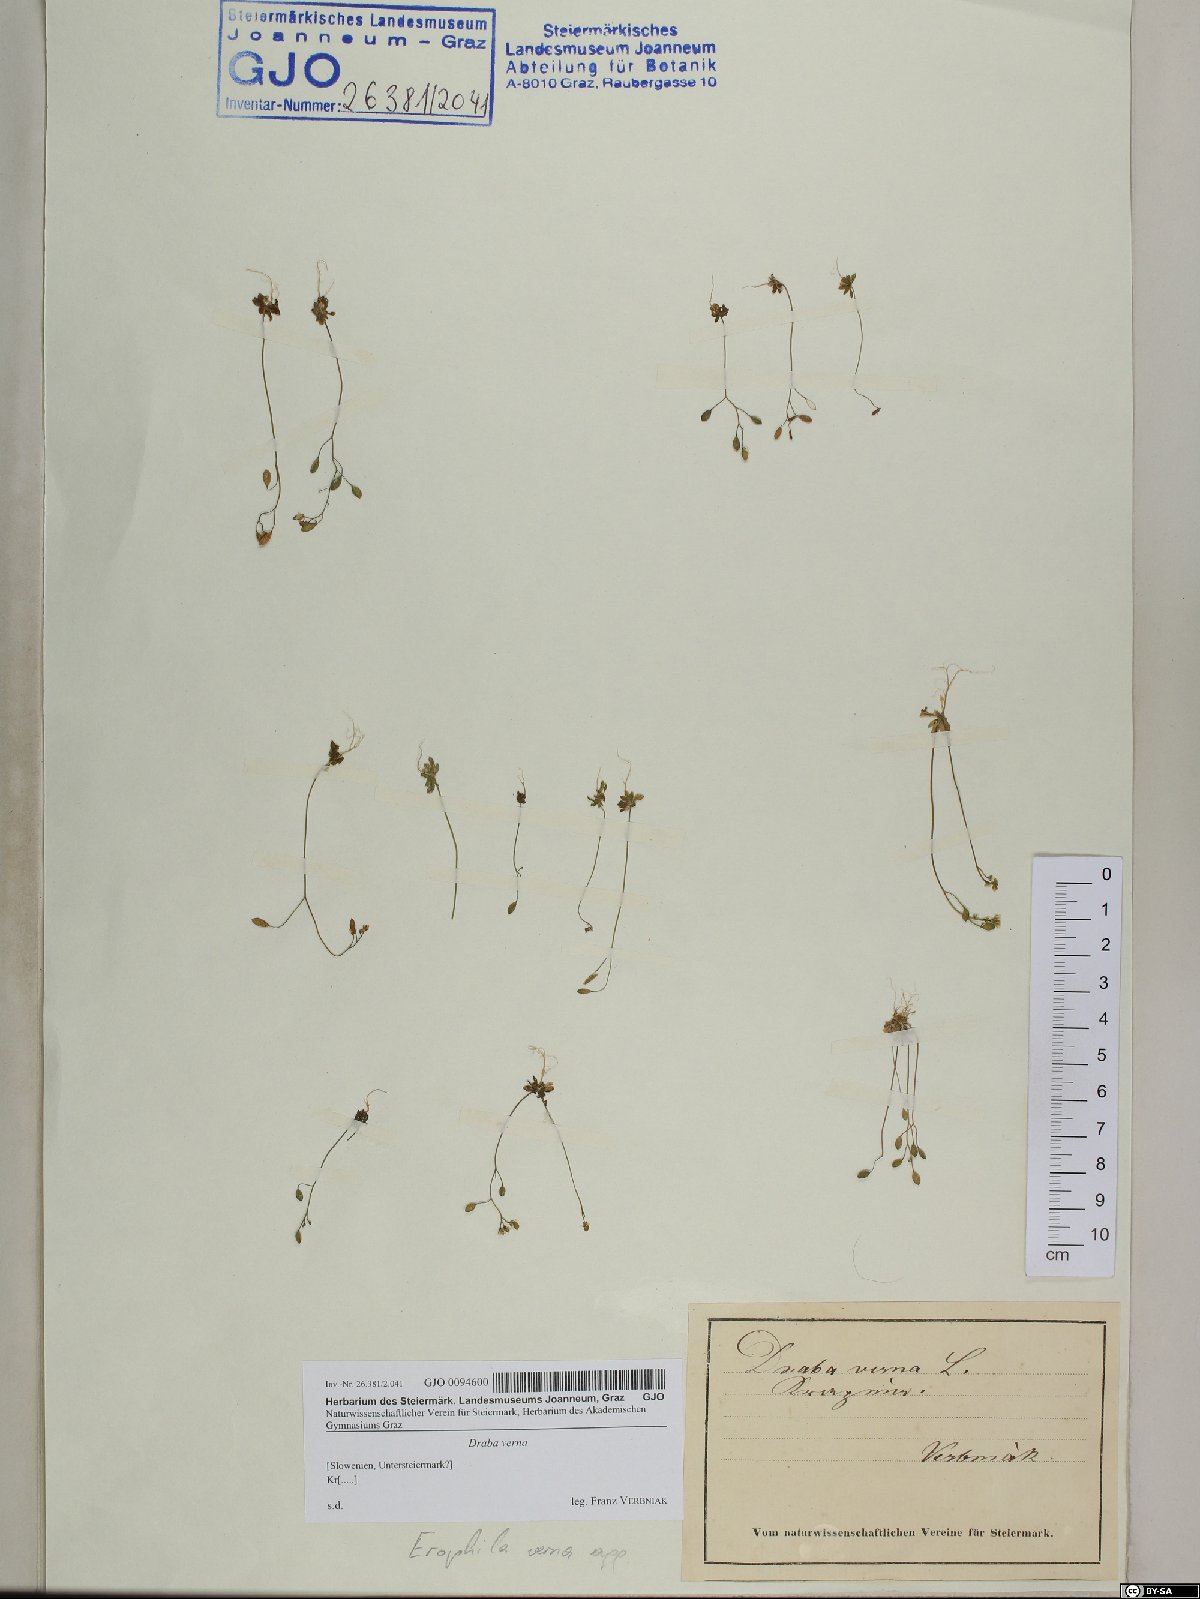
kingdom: Plantae
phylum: Tracheophyta
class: Magnoliopsida
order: Brassicales
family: Brassicaceae
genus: Draba
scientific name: Draba verna
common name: Spring draba
